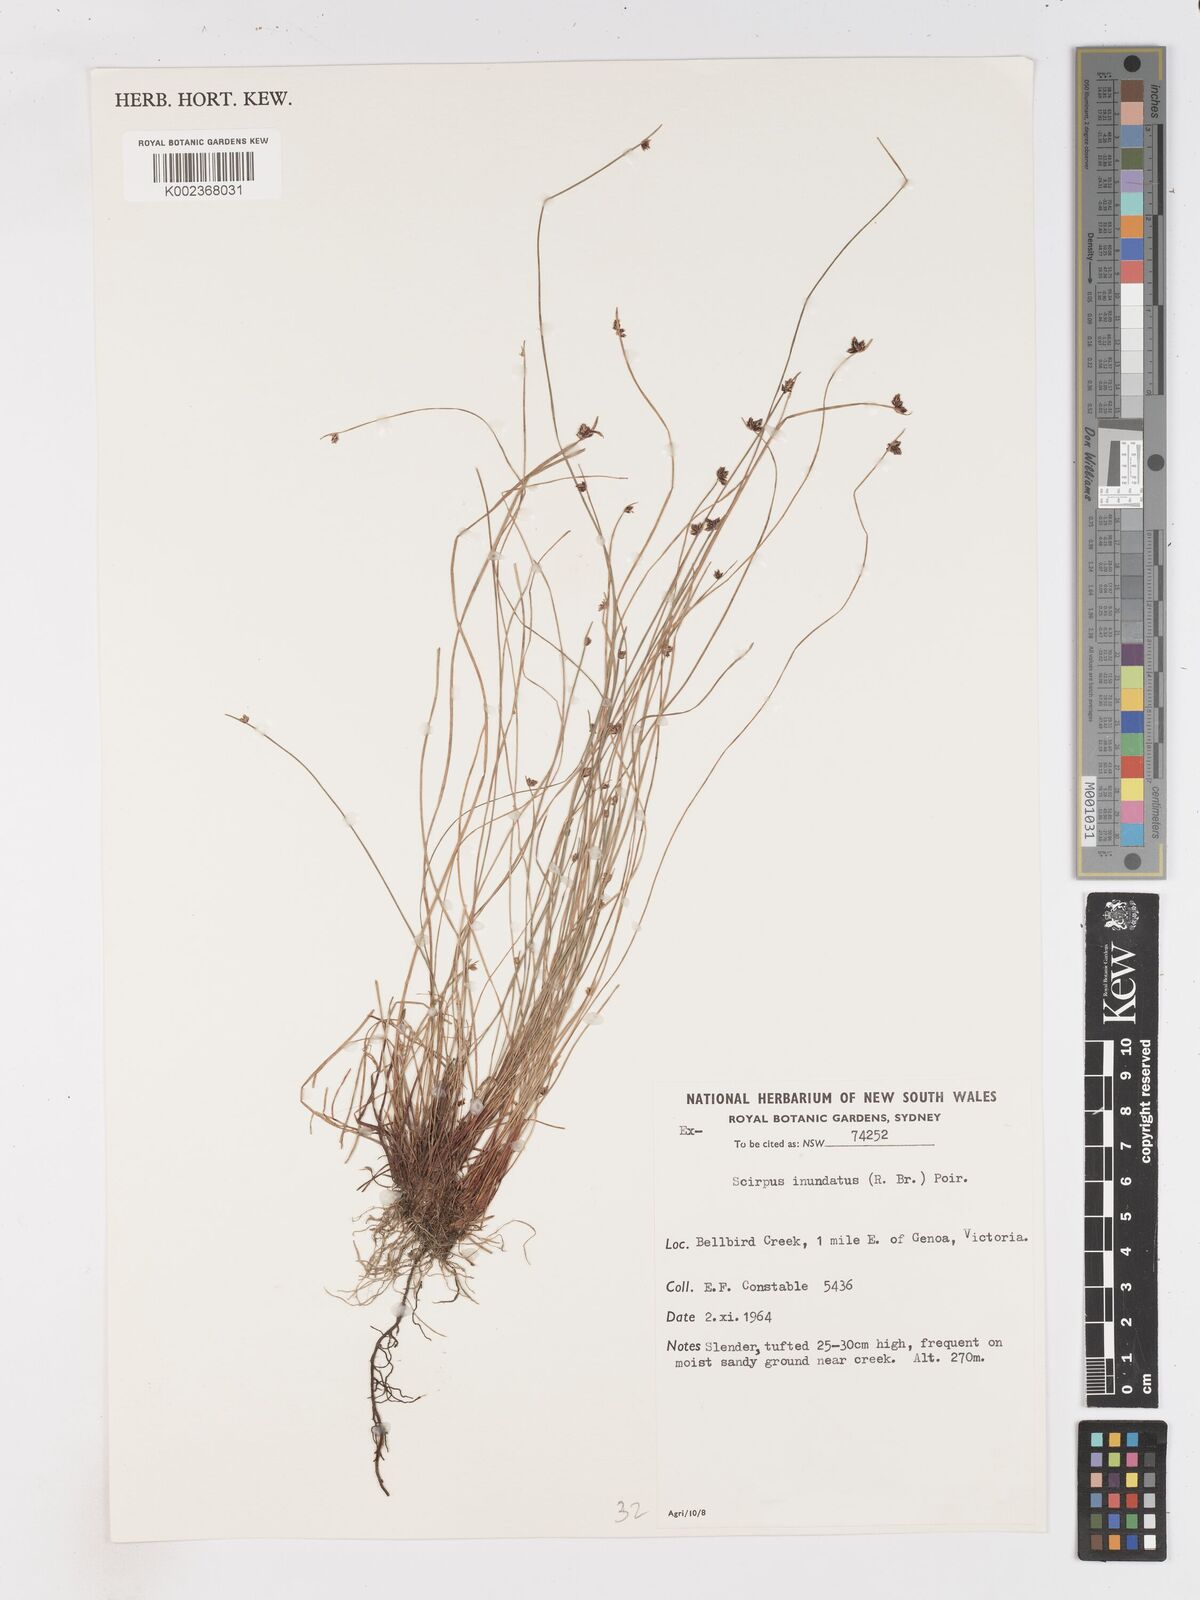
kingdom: Plantae
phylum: Tracheophyta
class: Liliopsida
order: Poales
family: Cyperaceae
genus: Isolepis
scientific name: Isolepis inundata
